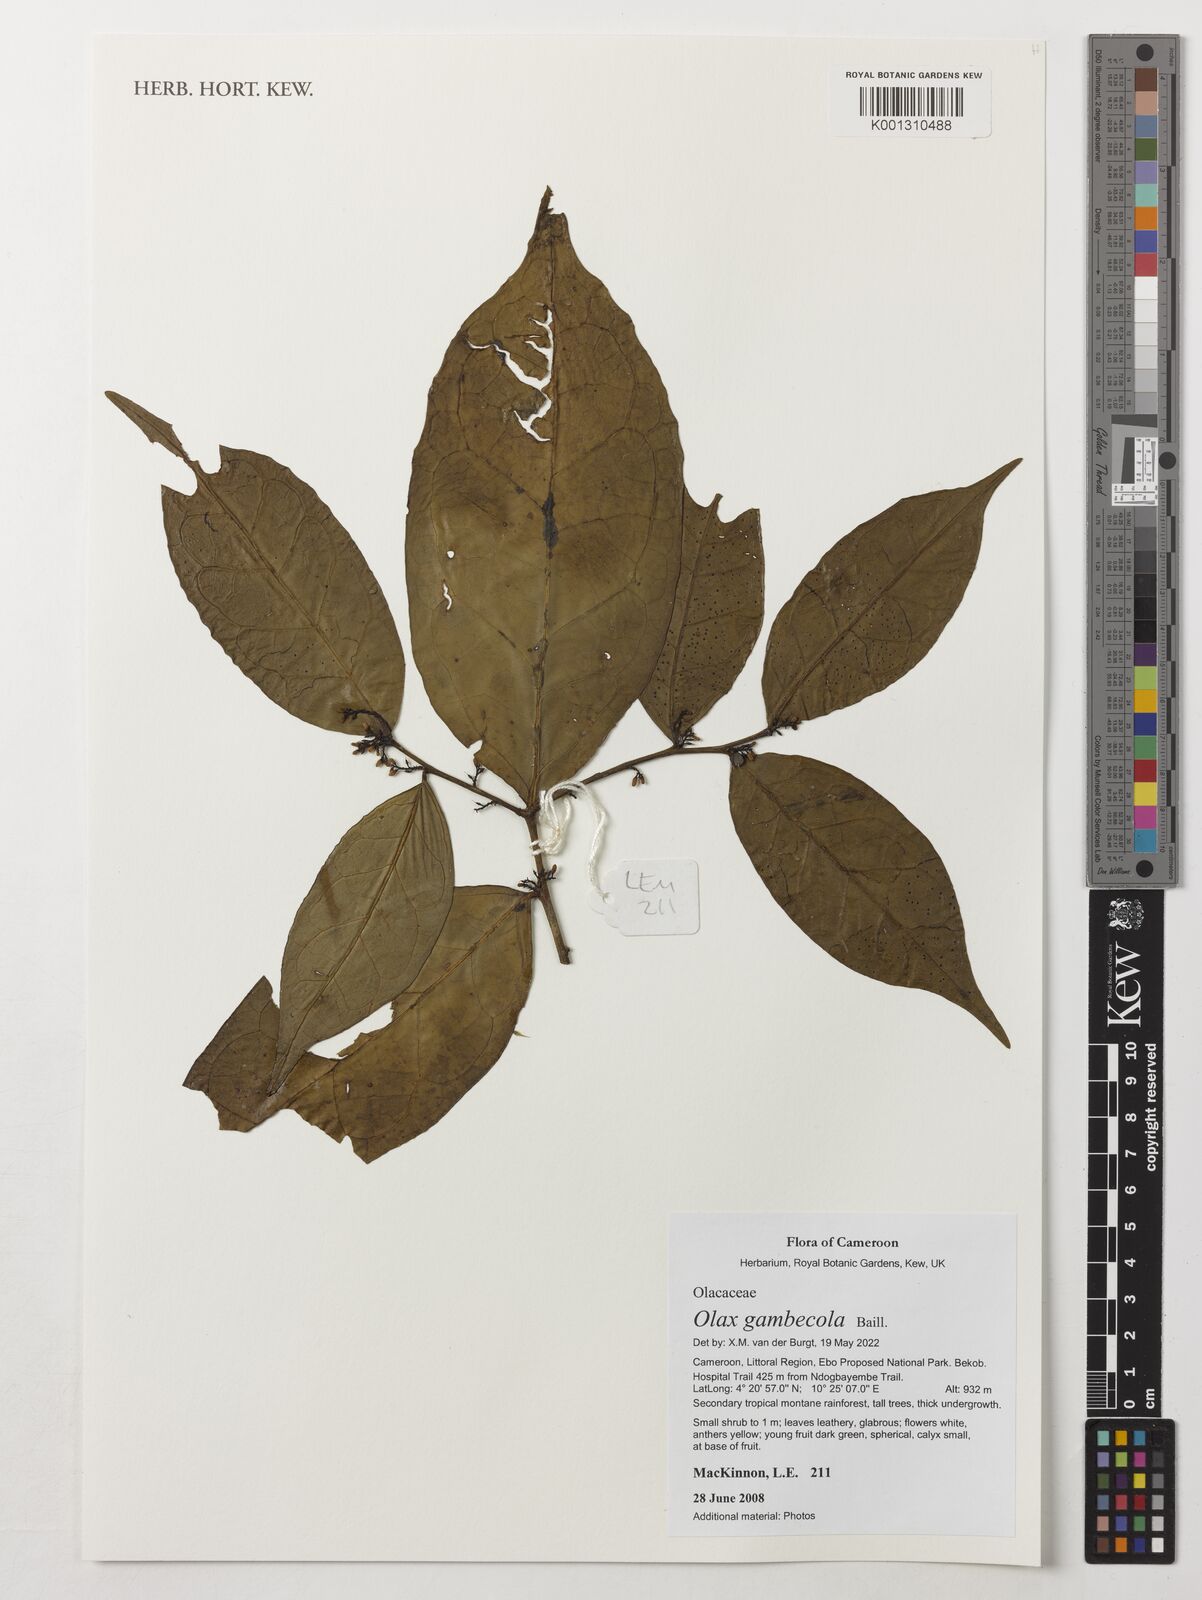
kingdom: Plantae
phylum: Tracheophyta
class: Magnoliopsida
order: Santalales
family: Olacaceae
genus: Olax
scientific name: Olax gambecola
